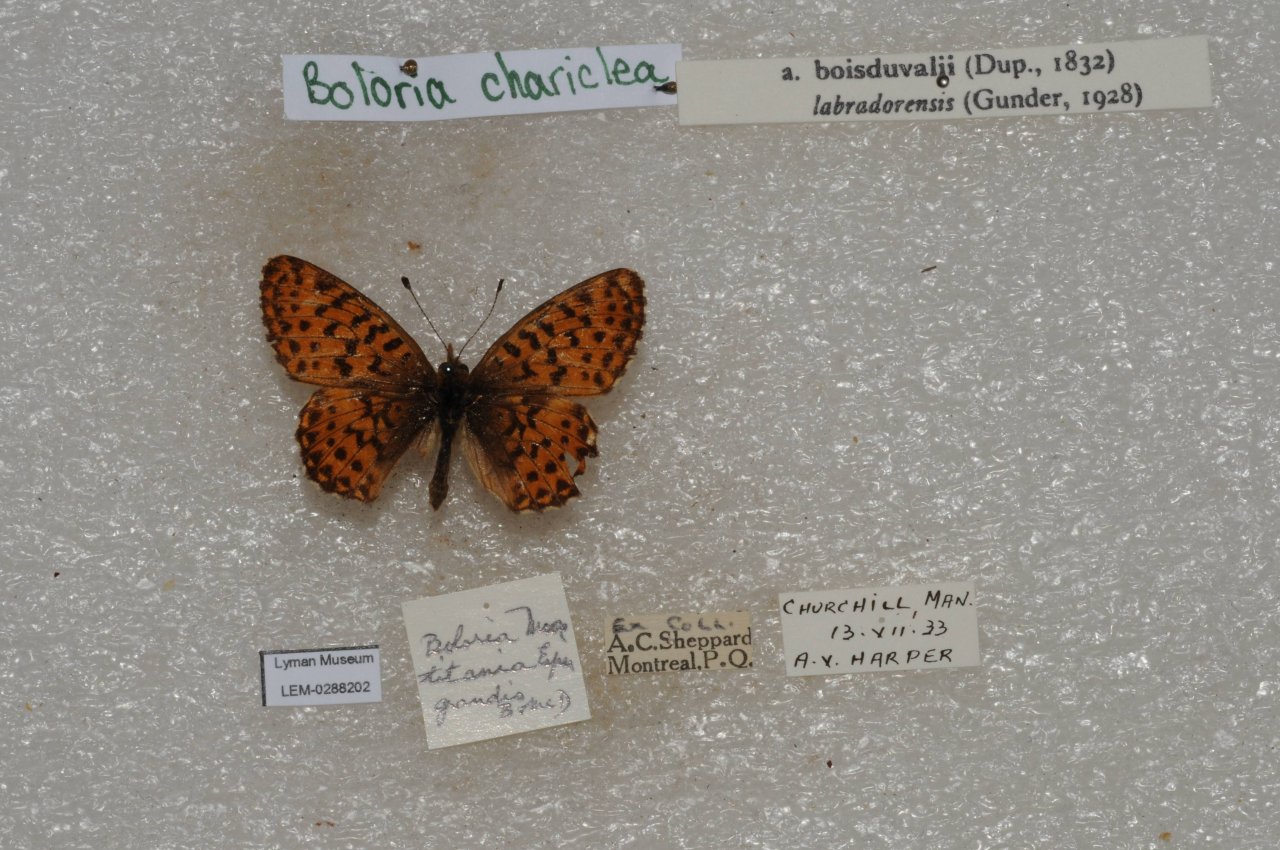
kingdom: Animalia
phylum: Arthropoda
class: Insecta
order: Lepidoptera
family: Nymphalidae
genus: Boloria
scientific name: Boloria chariclea
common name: Arctic Fritillary
